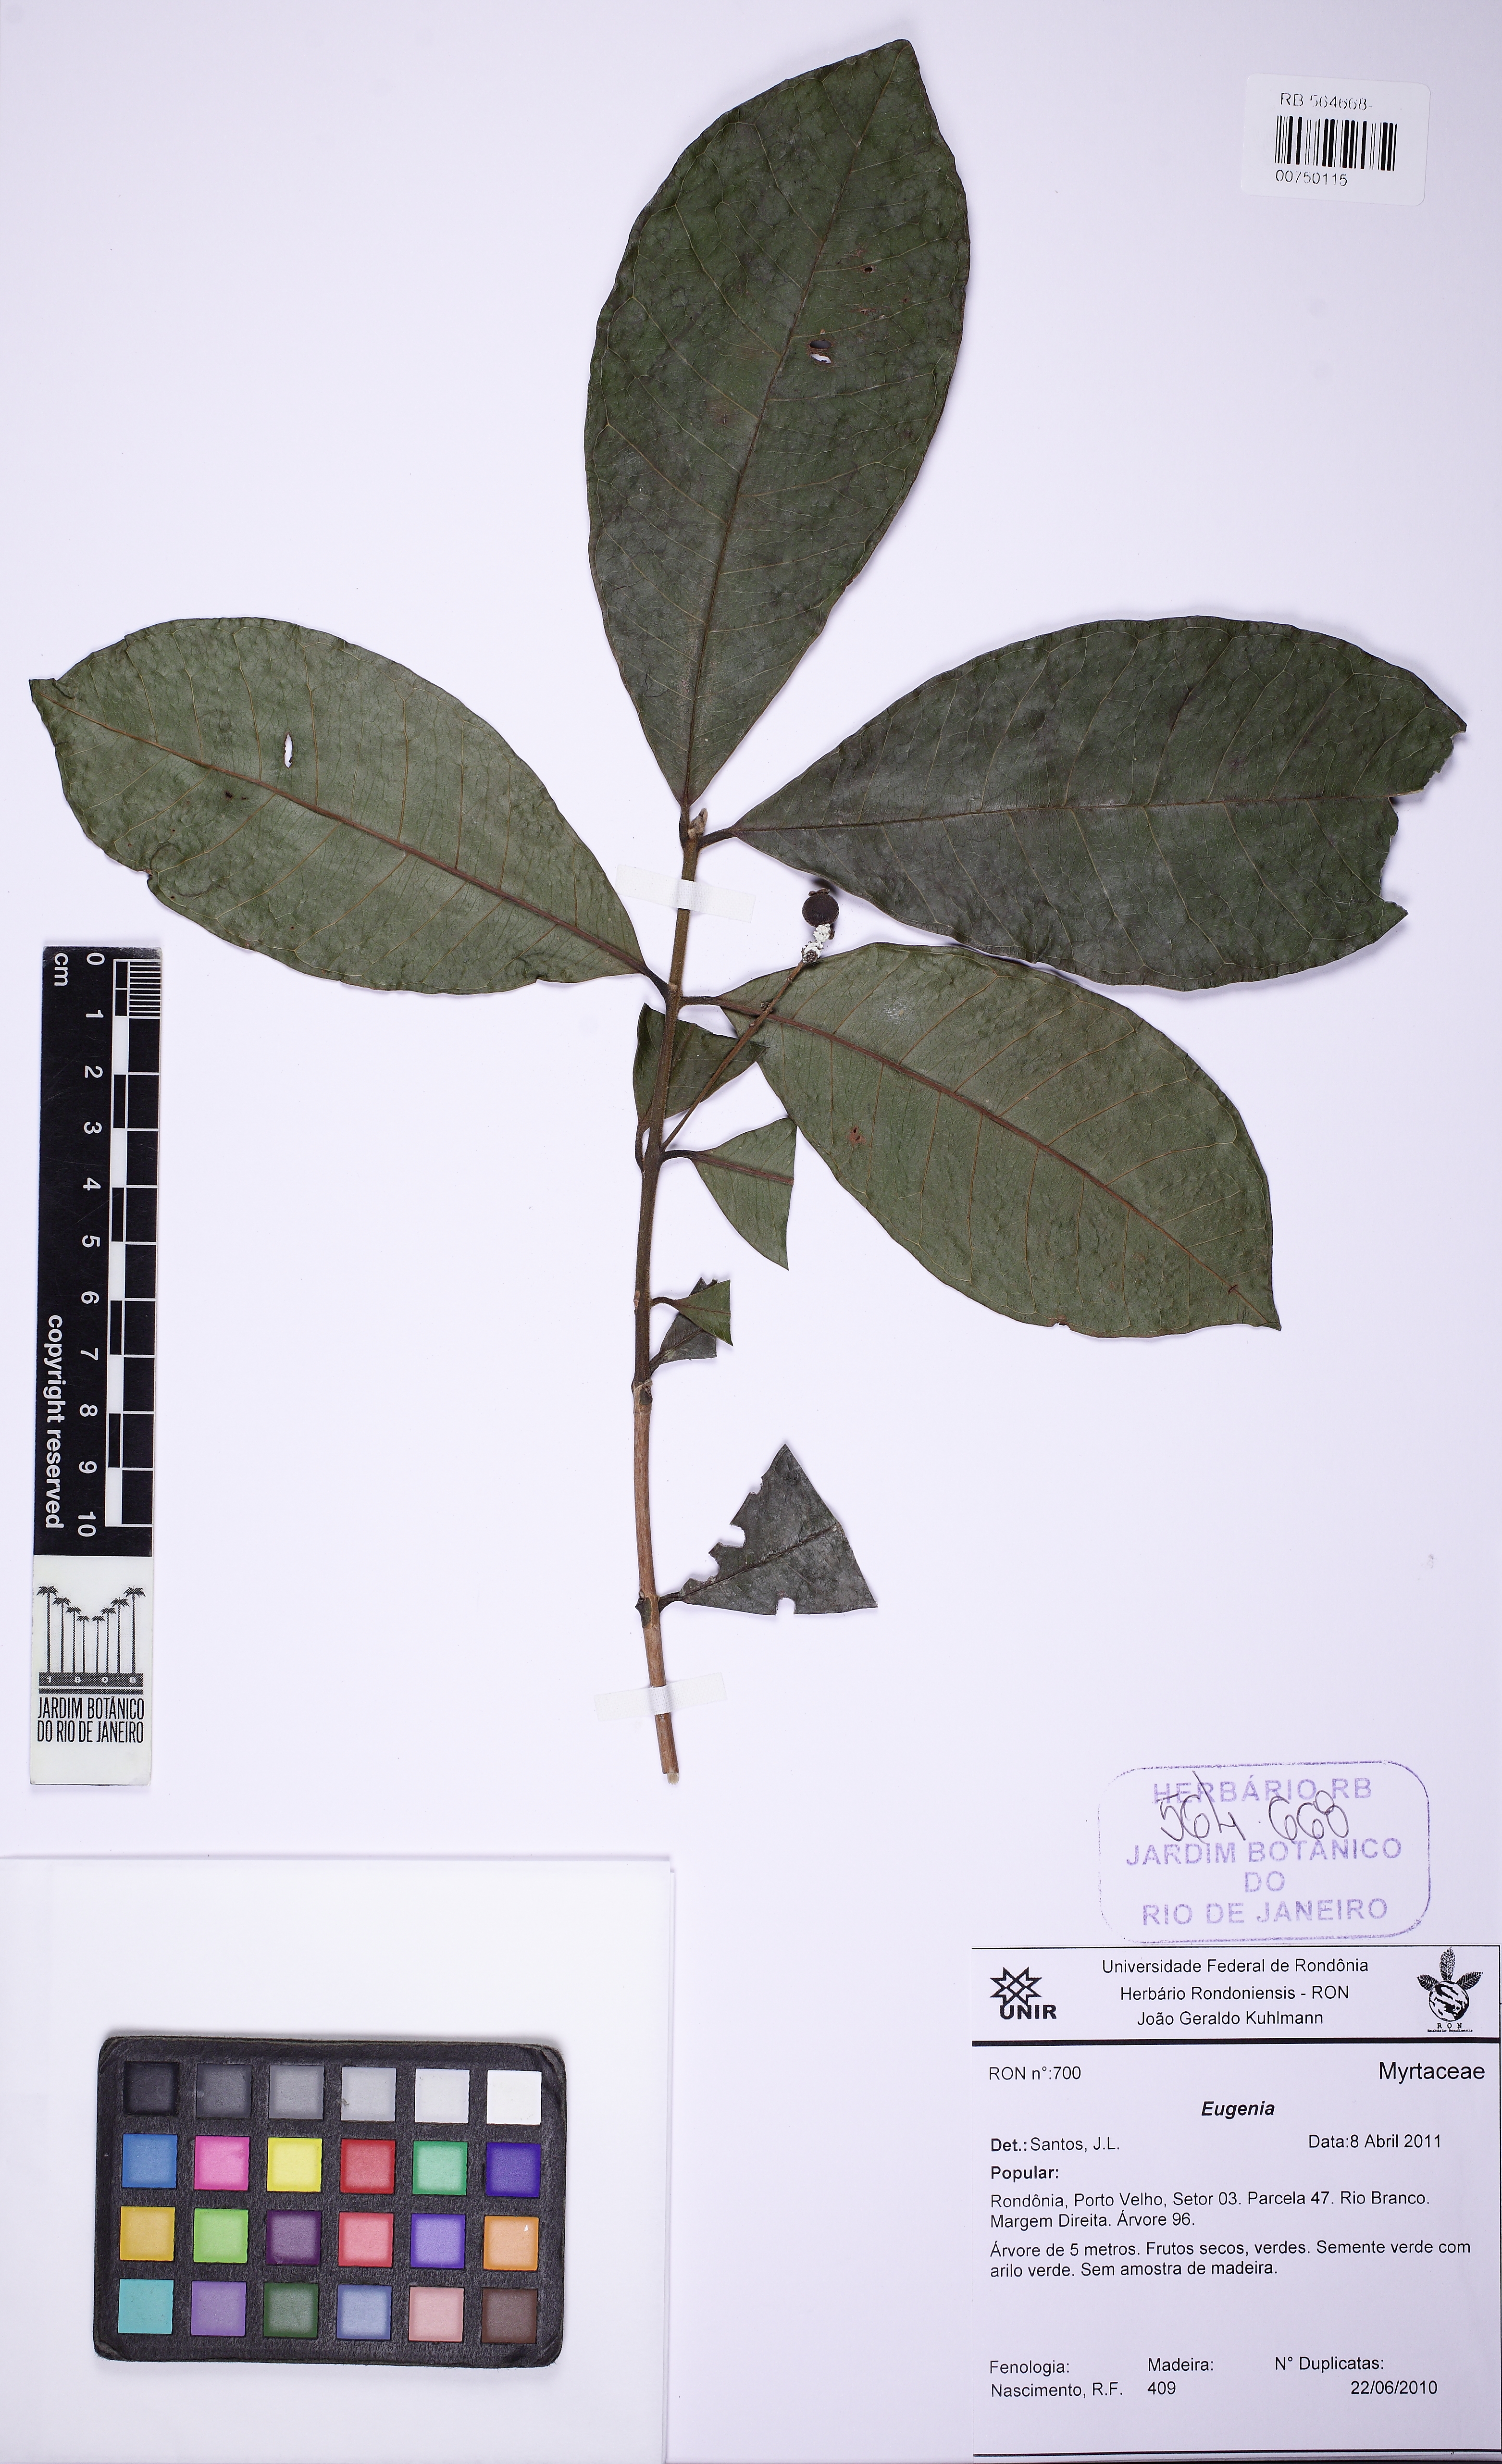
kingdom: Plantae
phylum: Tracheophyta
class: Magnoliopsida
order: Myrtales
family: Myrtaceae
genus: Myrcia
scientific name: Myrcia neesiana
